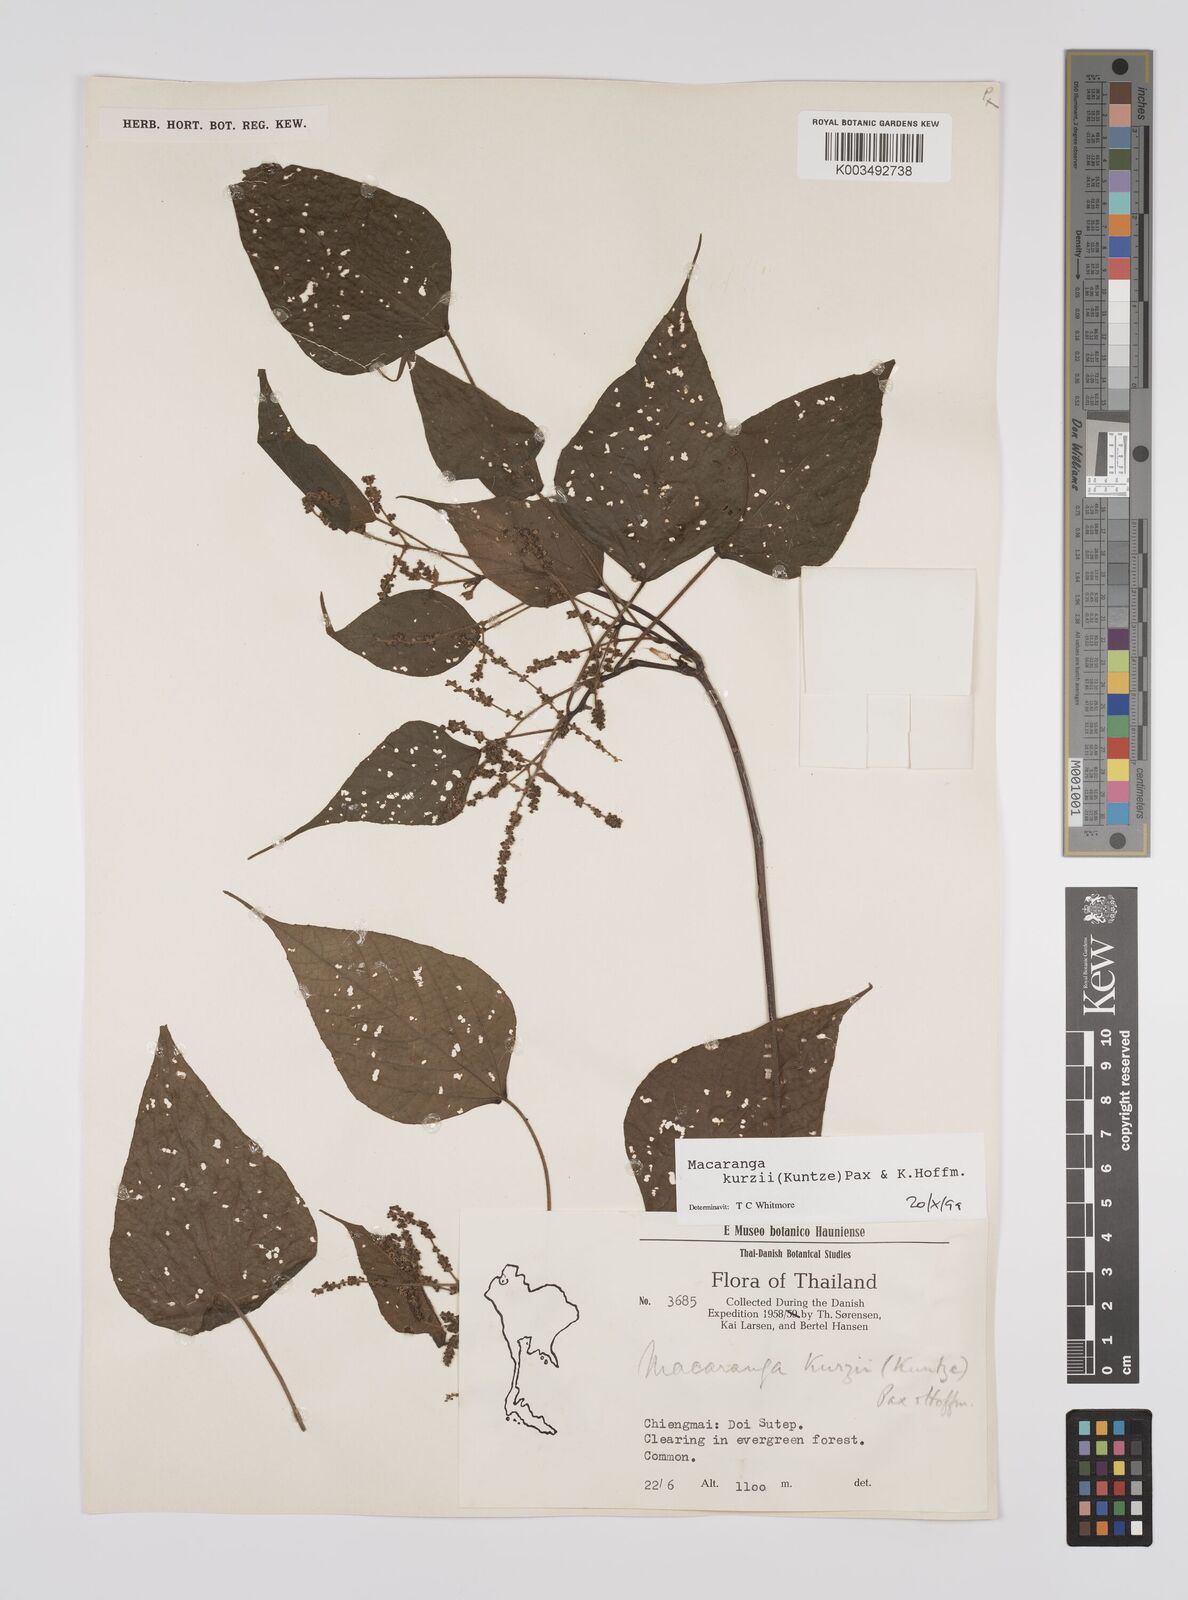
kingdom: Plantae
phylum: Tracheophyta
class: Magnoliopsida
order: Malpighiales
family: Euphorbiaceae
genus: Macaranga
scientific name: Macaranga kurzii
